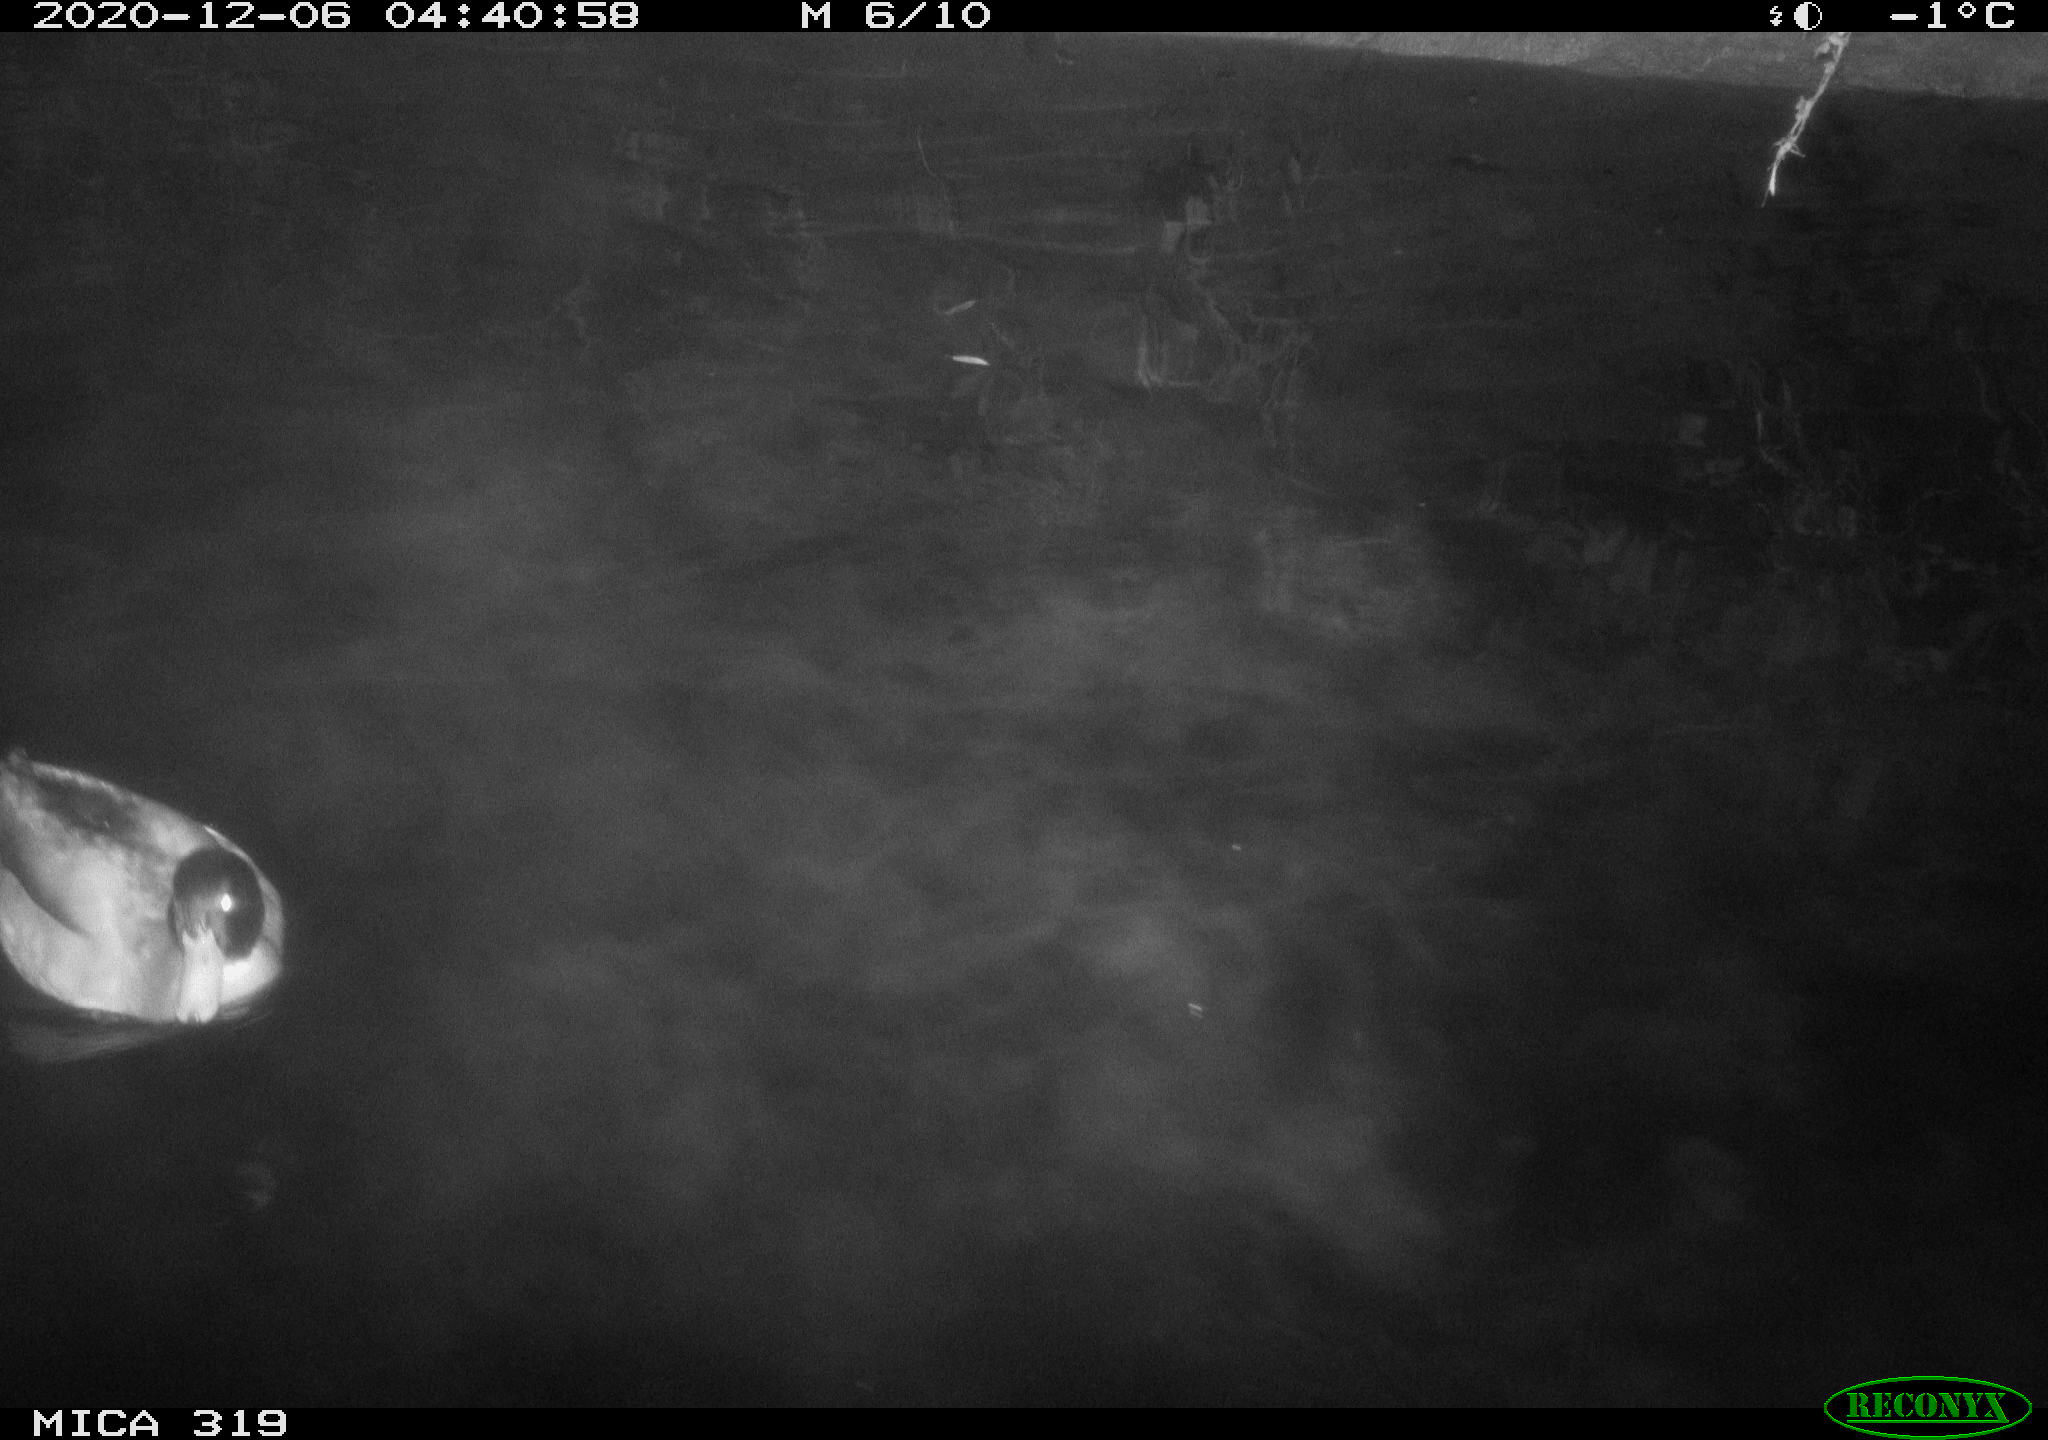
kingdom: Animalia
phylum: Chordata
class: Aves
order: Anseriformes
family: Anatidae
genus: Anas
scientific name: Anas platyrhynchos
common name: Mallard
